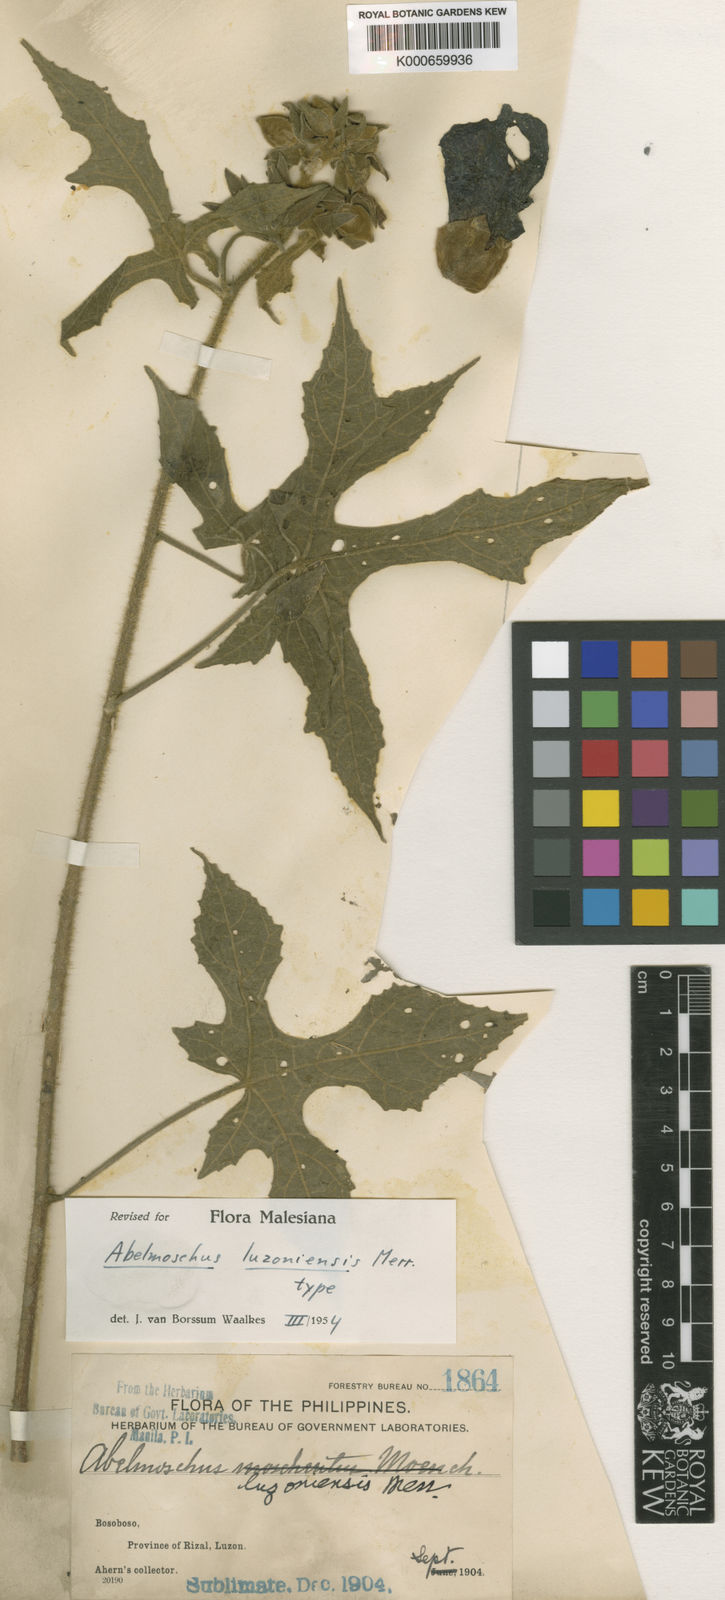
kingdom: Plantae
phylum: Tracheophyta
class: Magnoliopsida
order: Malvales
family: Malvaceae
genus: Abelmoschus
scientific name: Abelmoschus manihot
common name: Sunset muskmallow
